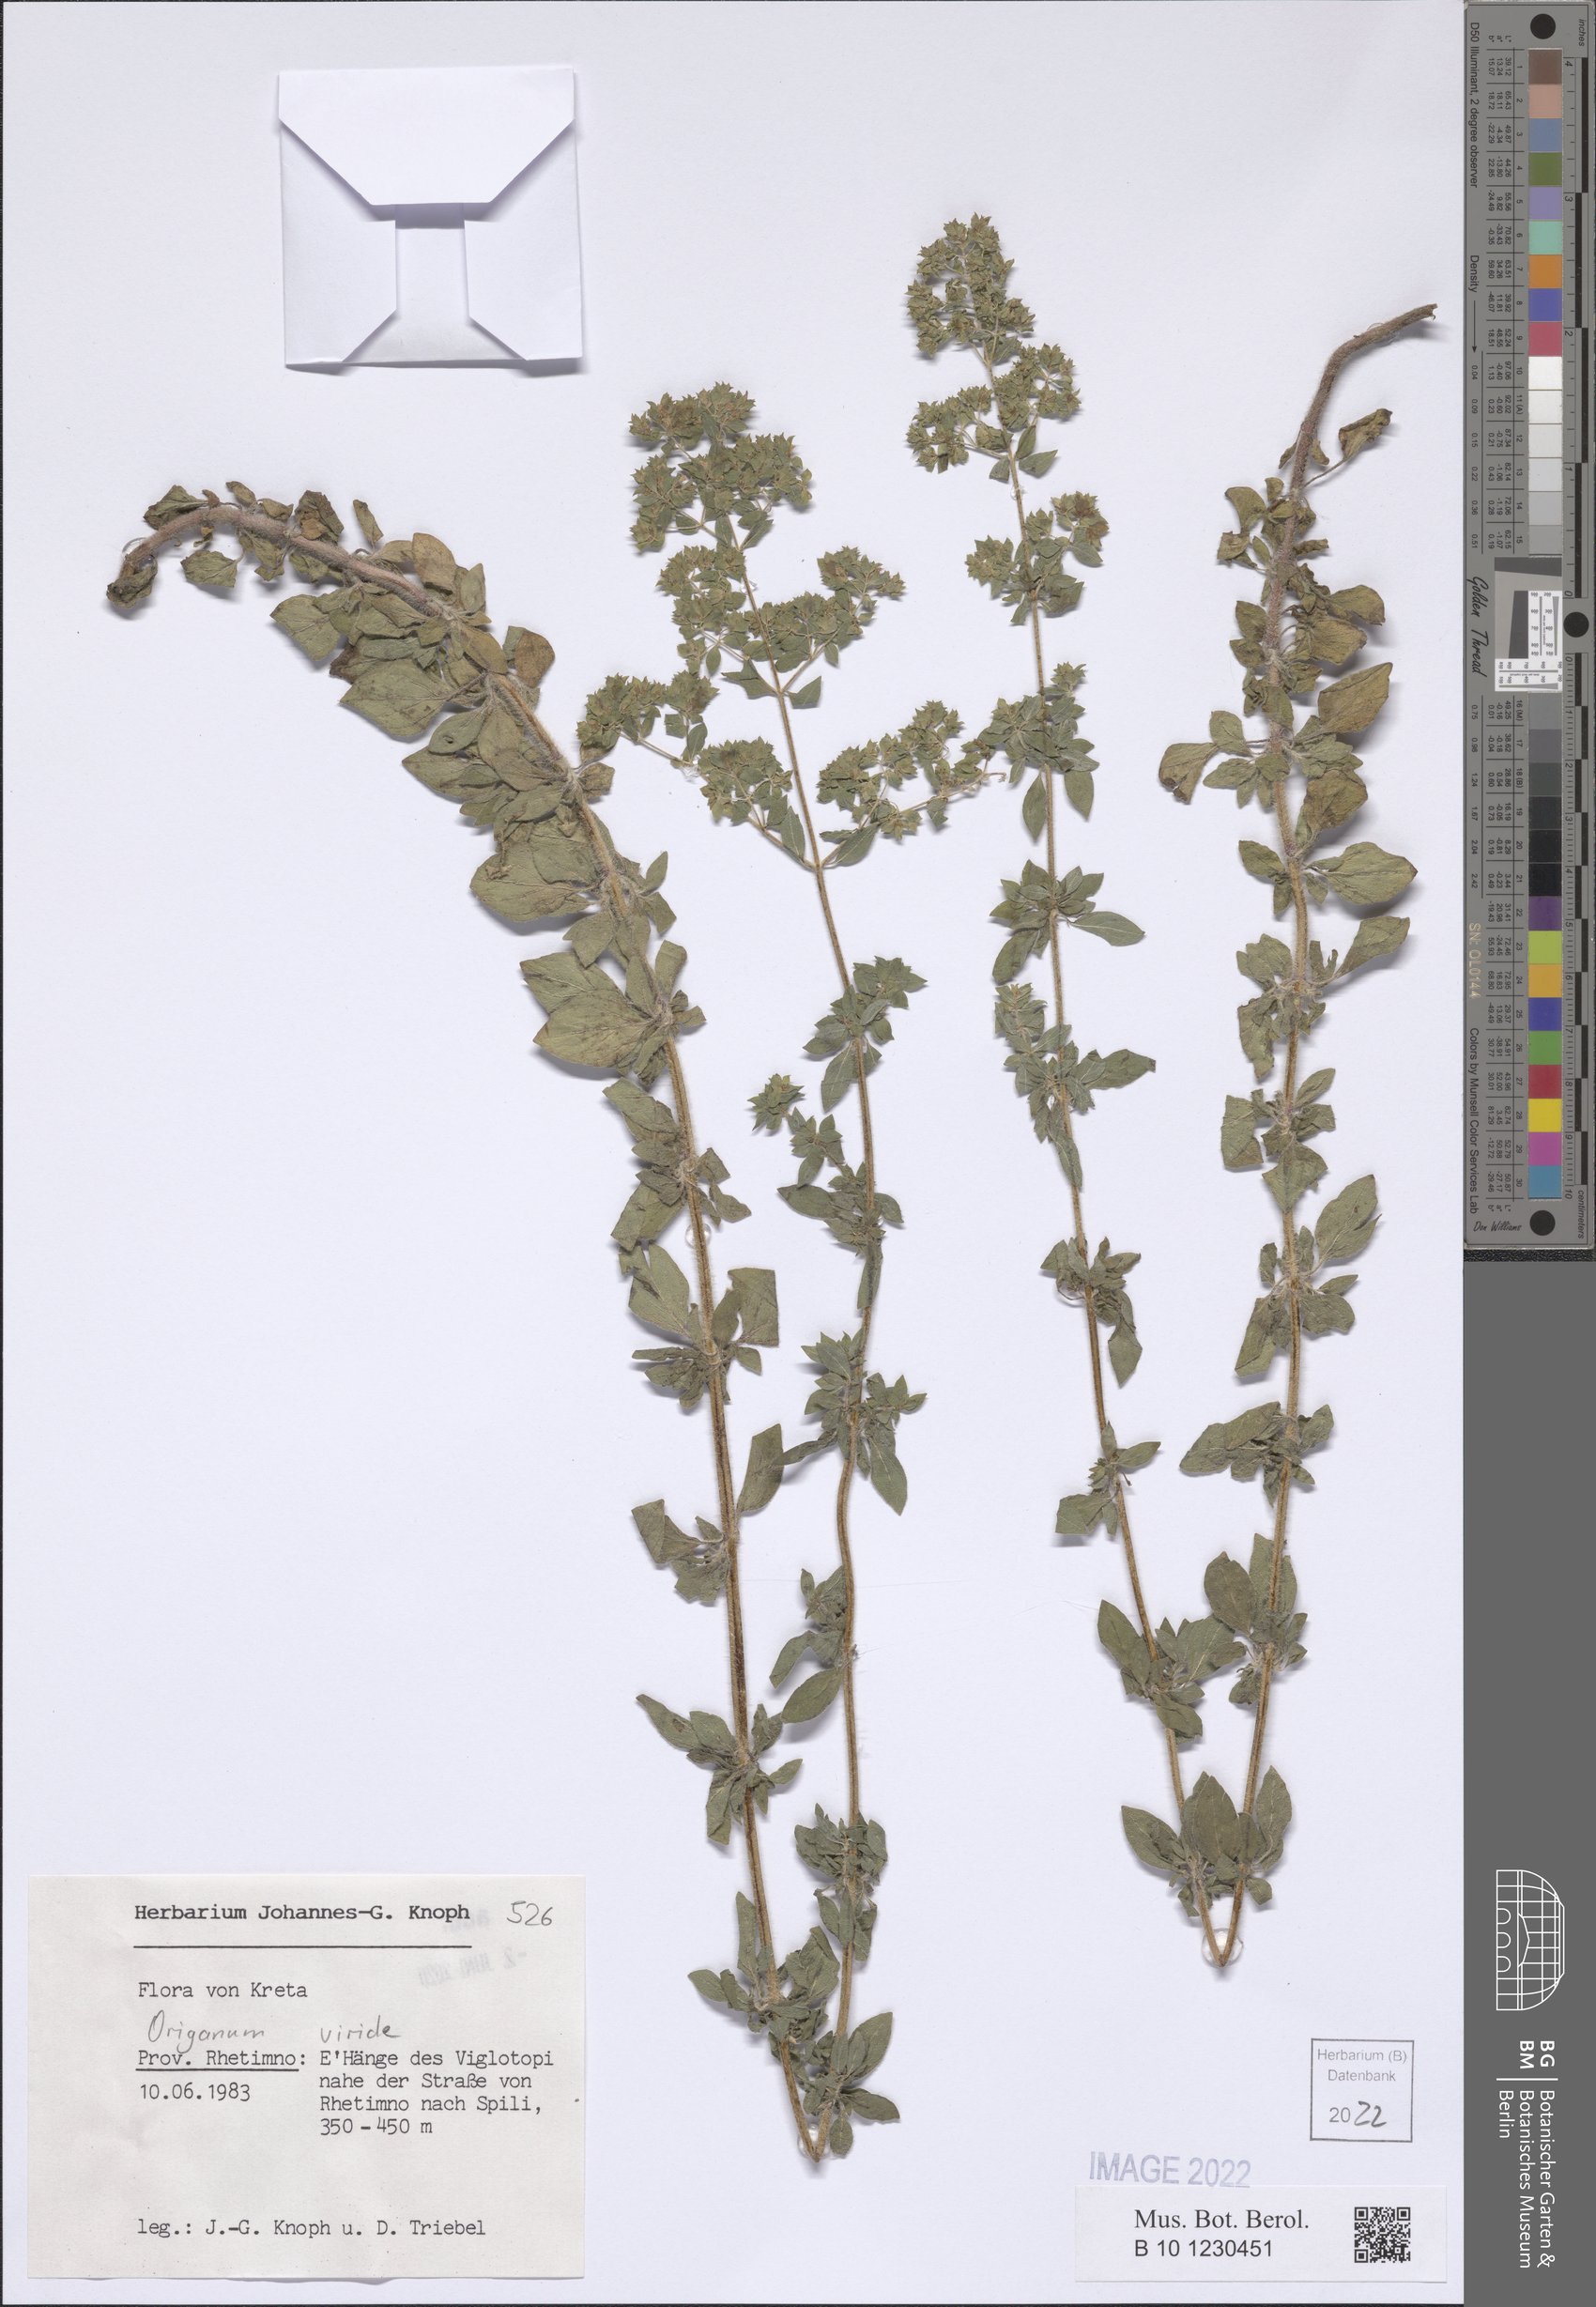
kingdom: Plantae
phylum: Tracheophyta
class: Magnoliopsida
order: Lamiales
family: Lamiaceae
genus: Origanum
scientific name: Origanum vulgare
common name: Wild marjoram
